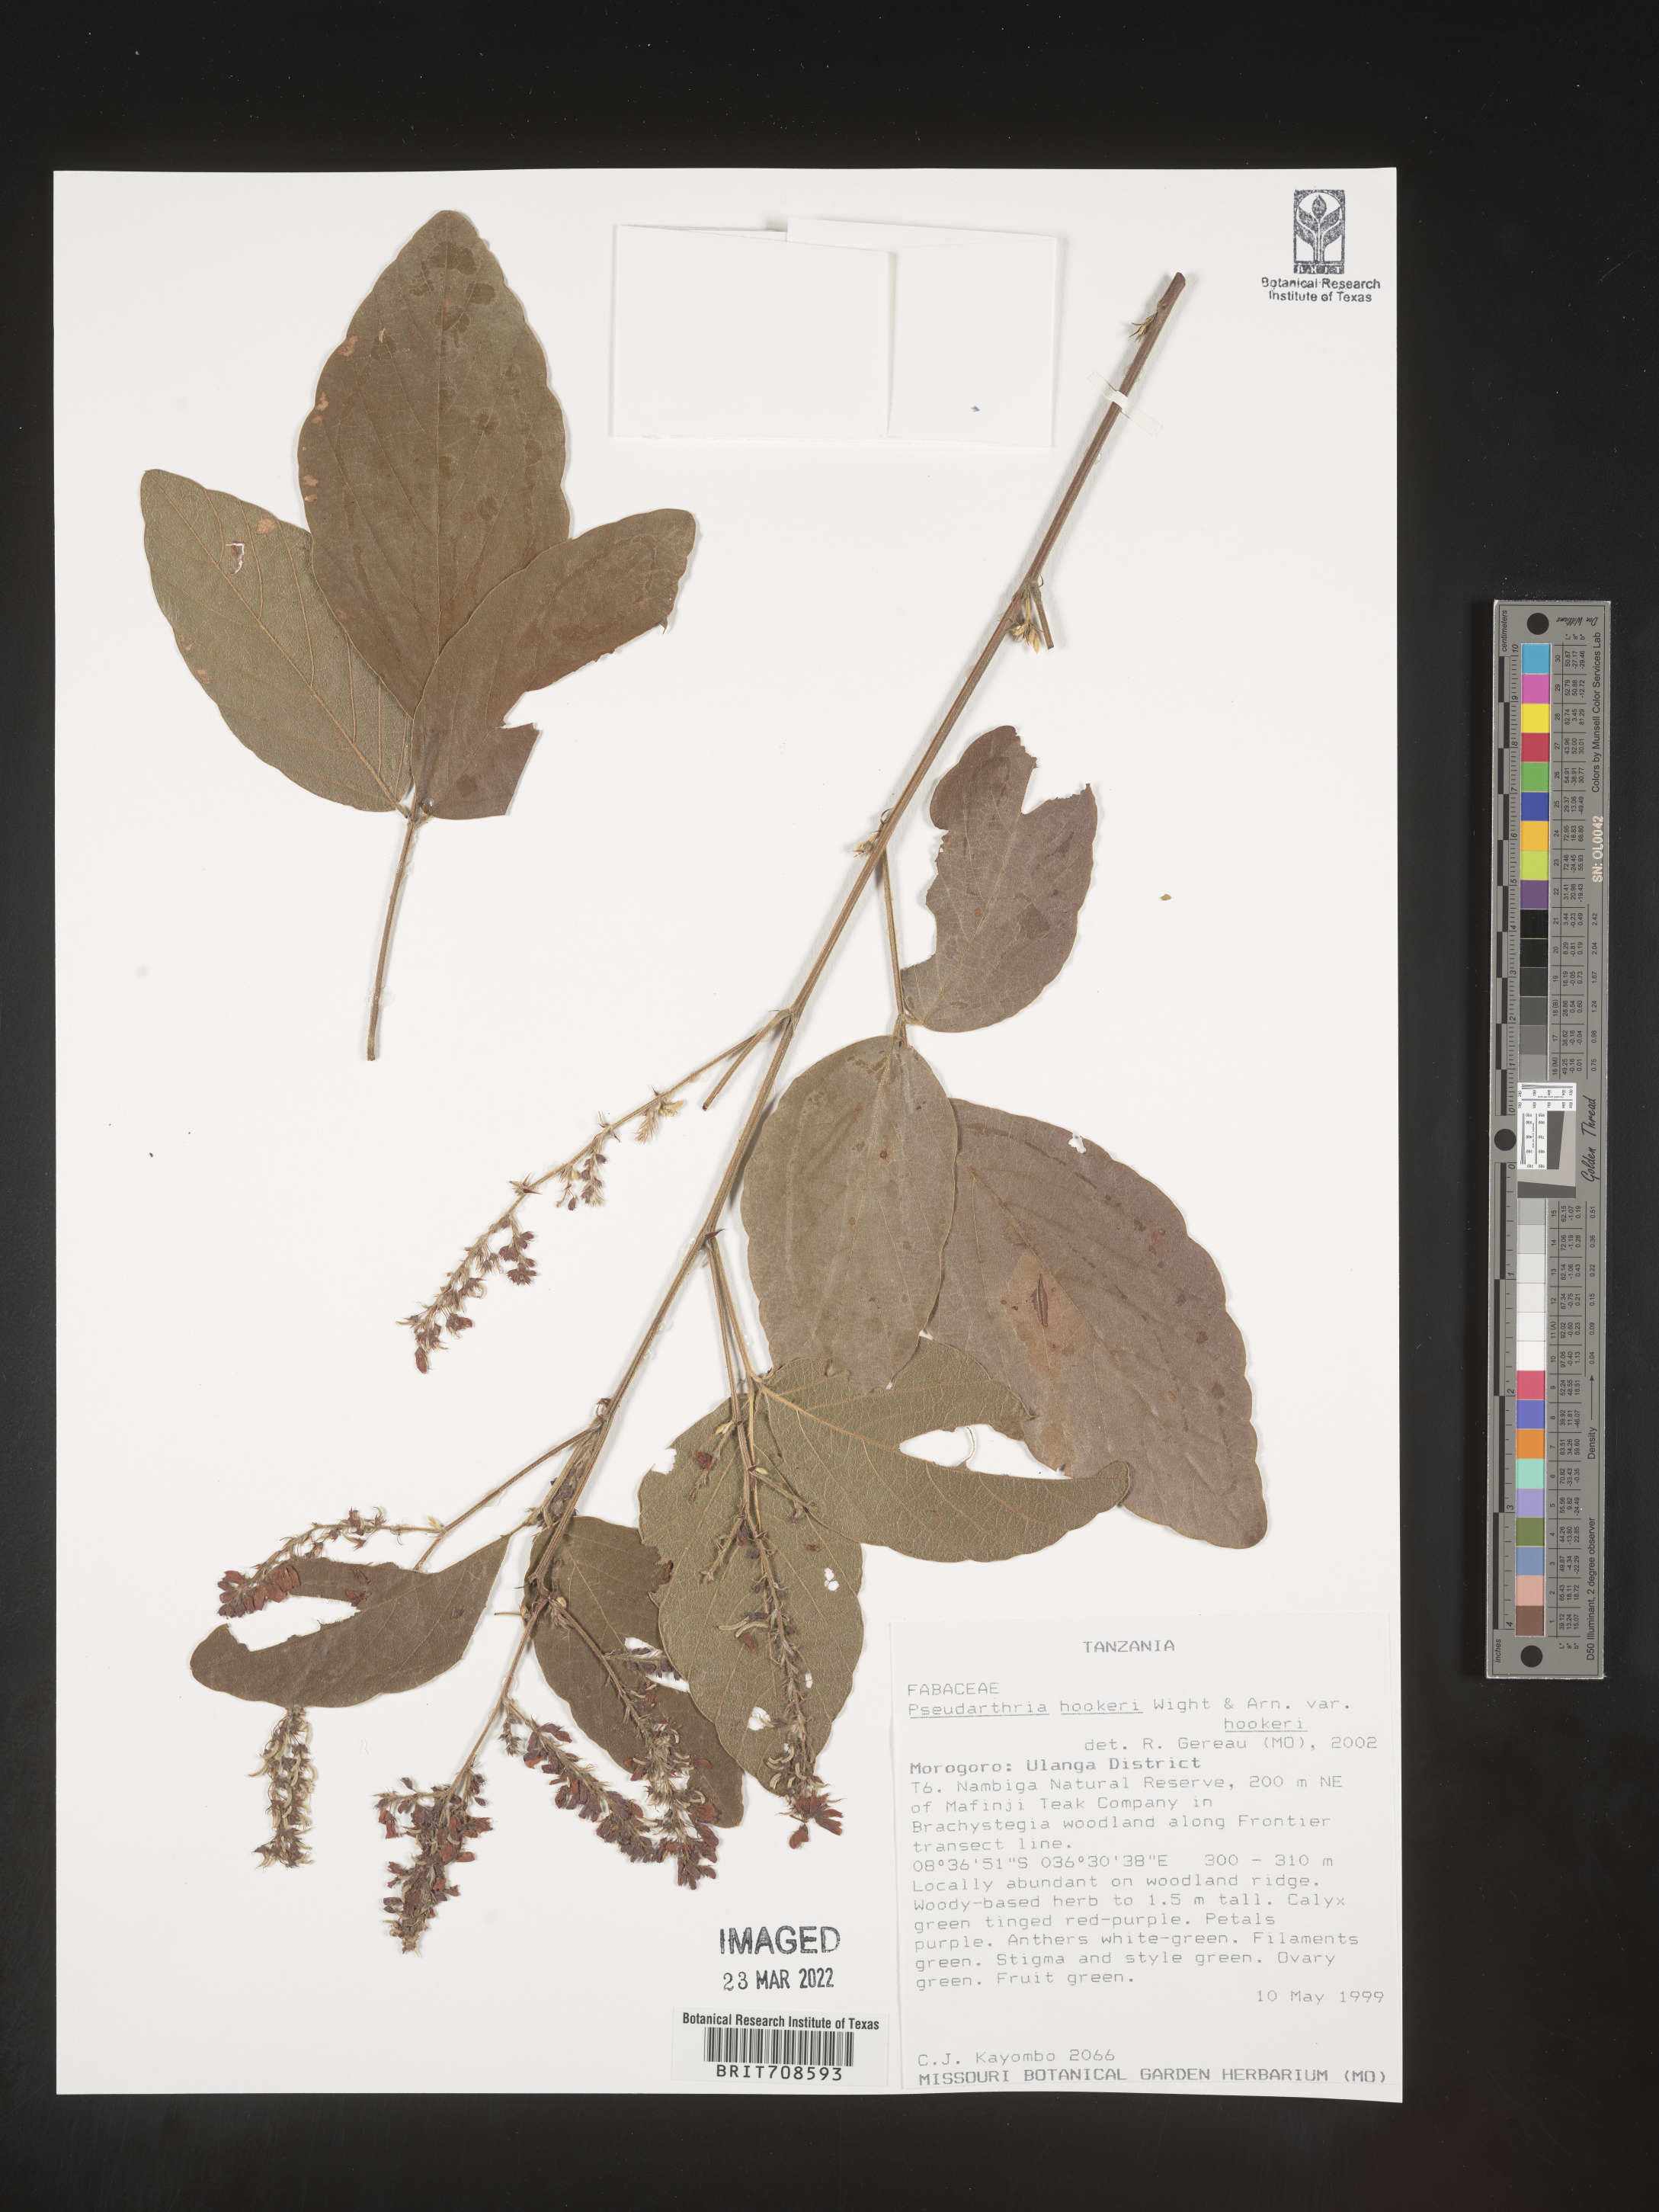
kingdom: Plantae
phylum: Tracheophyta
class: Magnoliopsida
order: Fabales
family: Fabaceae
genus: Pseudarthria
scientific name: Pseudarthria
